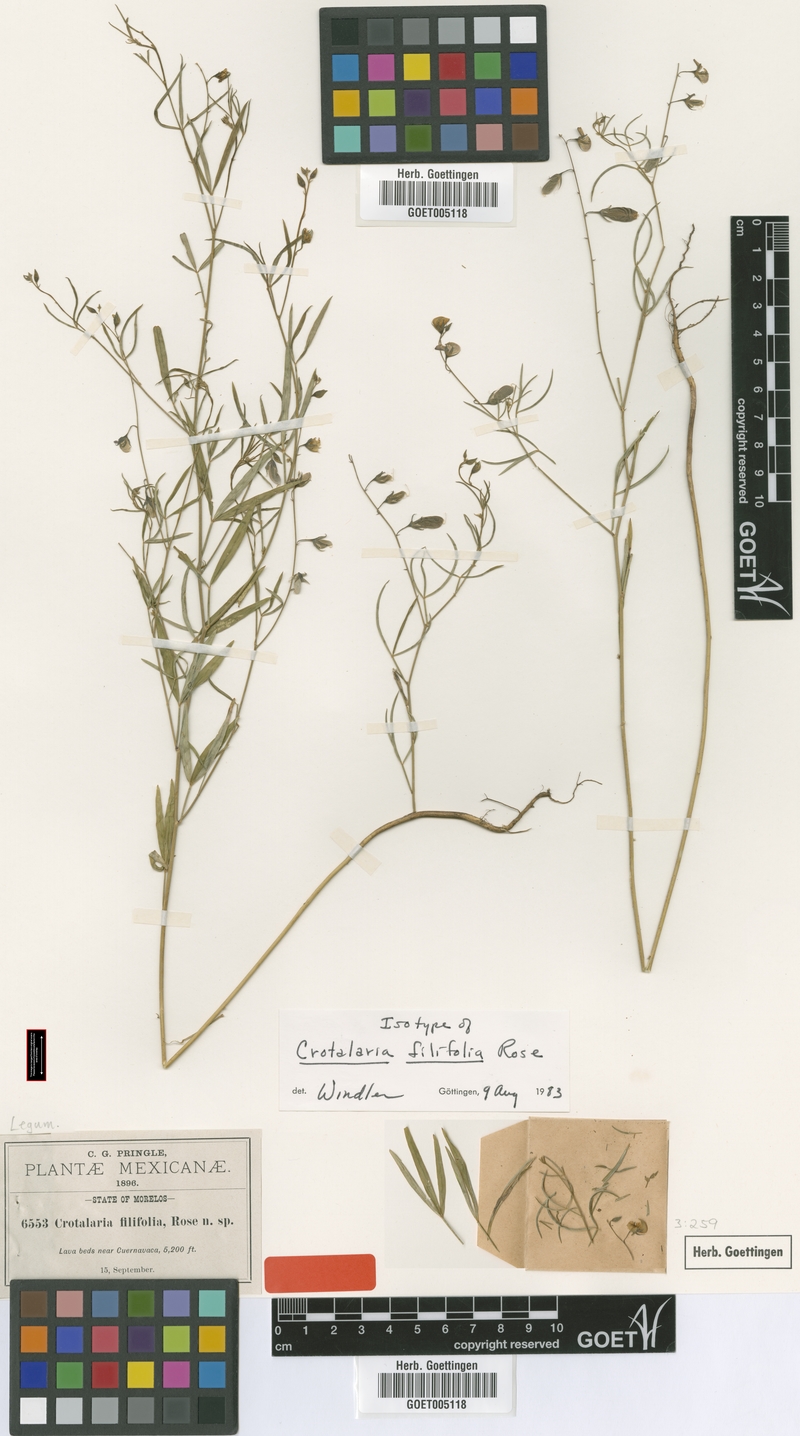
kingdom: Plantae
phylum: Tracheophyta
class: Magnoliopsida
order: Fabales
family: Fabaceae
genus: Crotalaria
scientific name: Crotalaria filifolia
